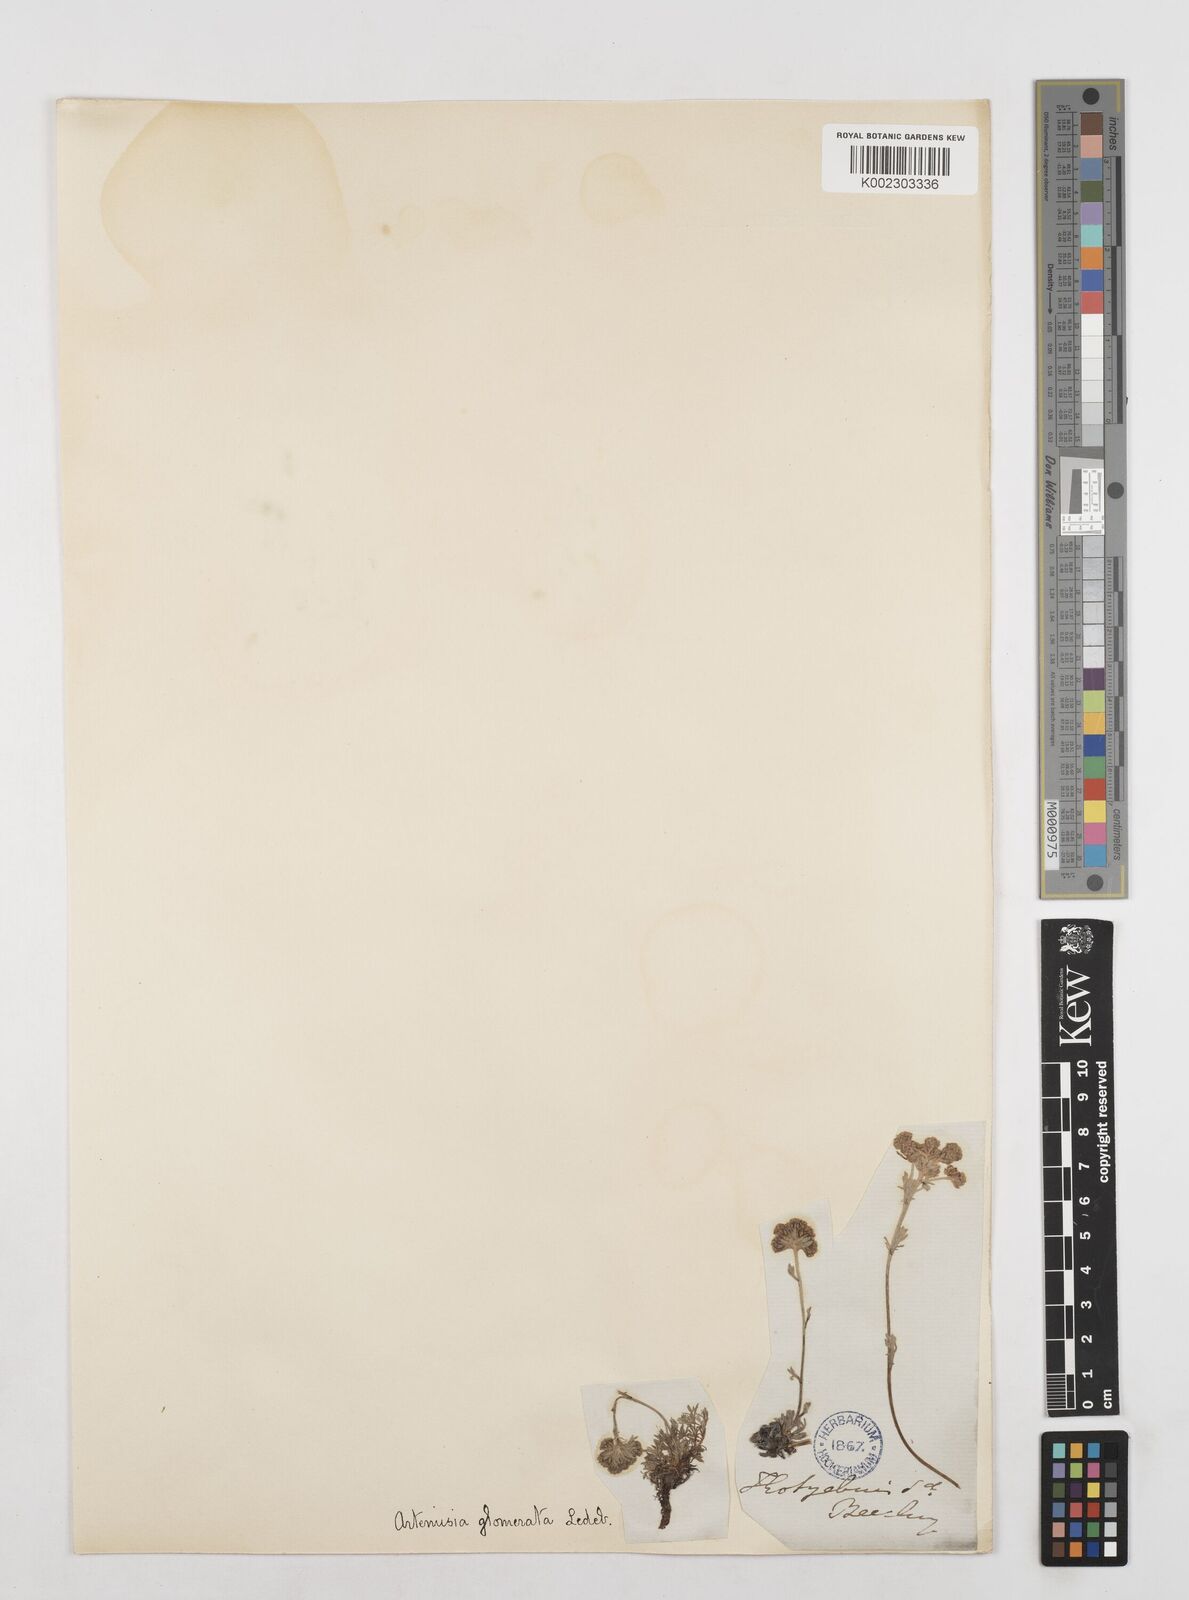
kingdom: Plantae
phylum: Tracheophyta
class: Magnoliopsida
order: Asterales
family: Asteraceae
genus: Artemisia
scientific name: Artemisia glomerata
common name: Pacific alpine wormwood
